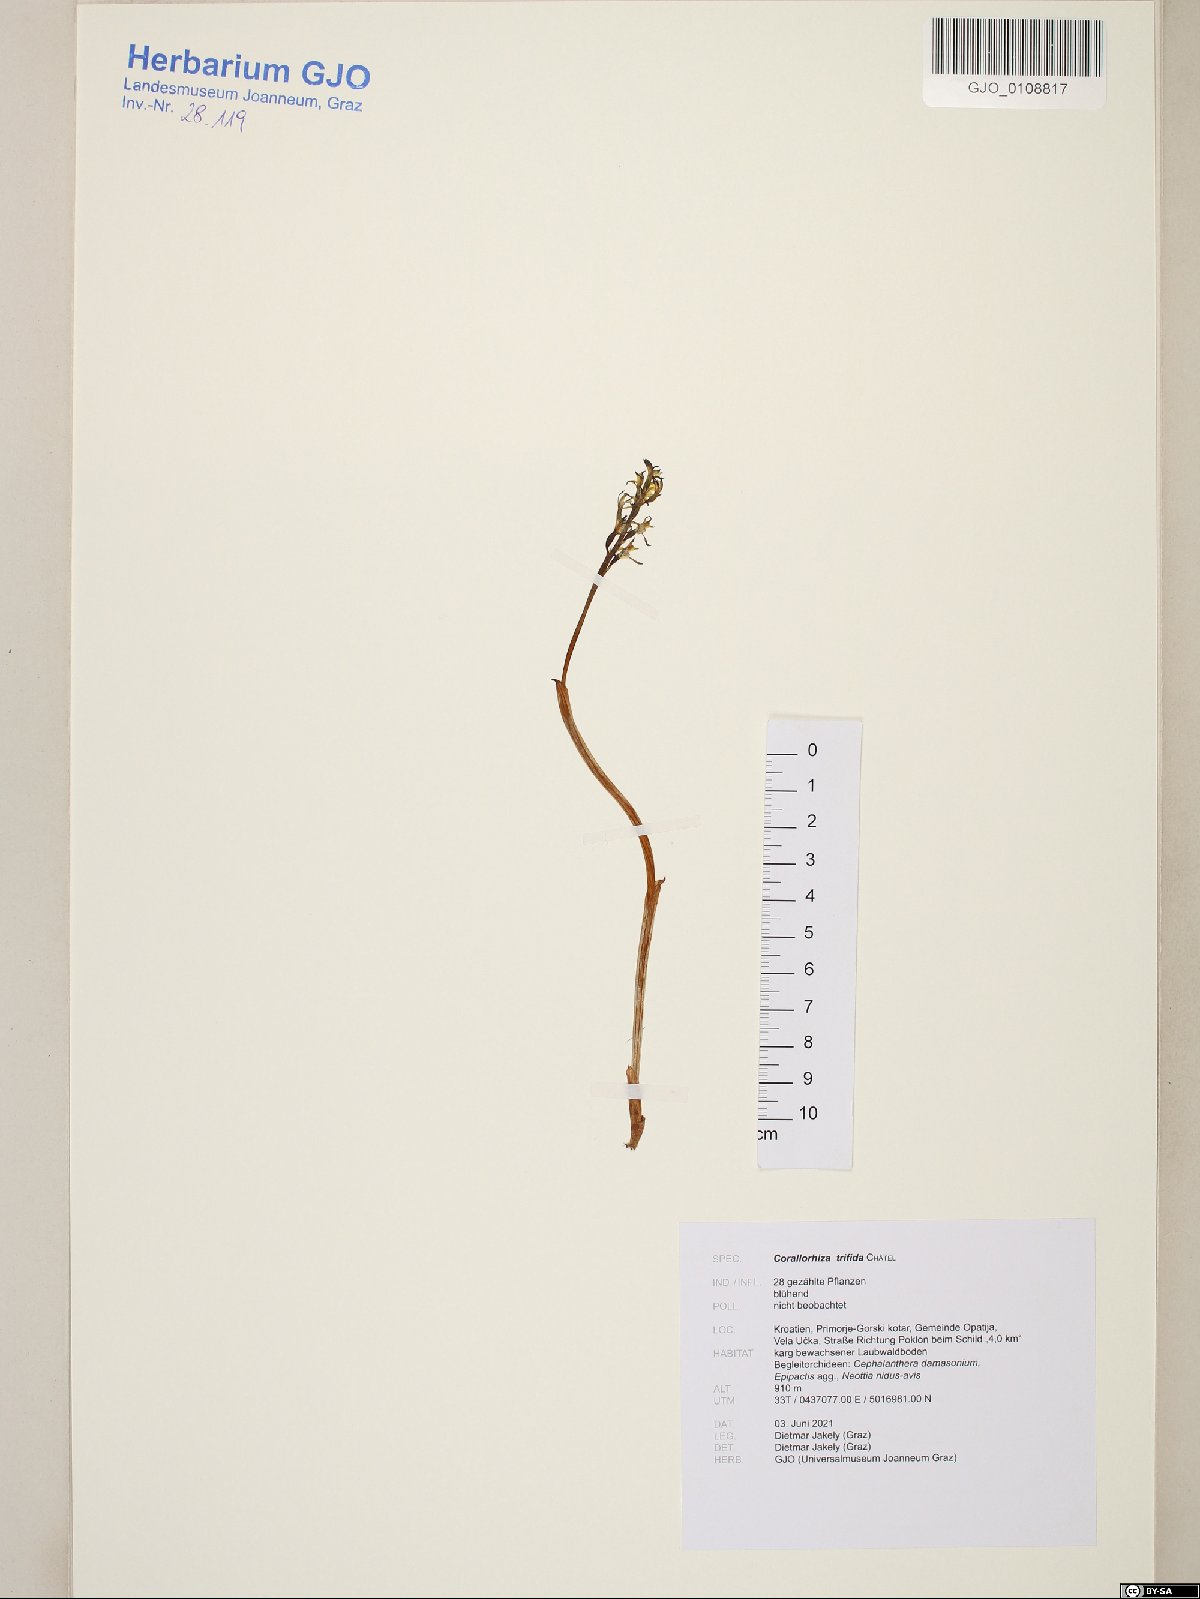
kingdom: Plantae
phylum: Tracheophyta
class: Liliopsida
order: Asparagales
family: Orchidaceae
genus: Corallorhiza
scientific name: Corallorhiza trifida
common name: Yellow coralroot
